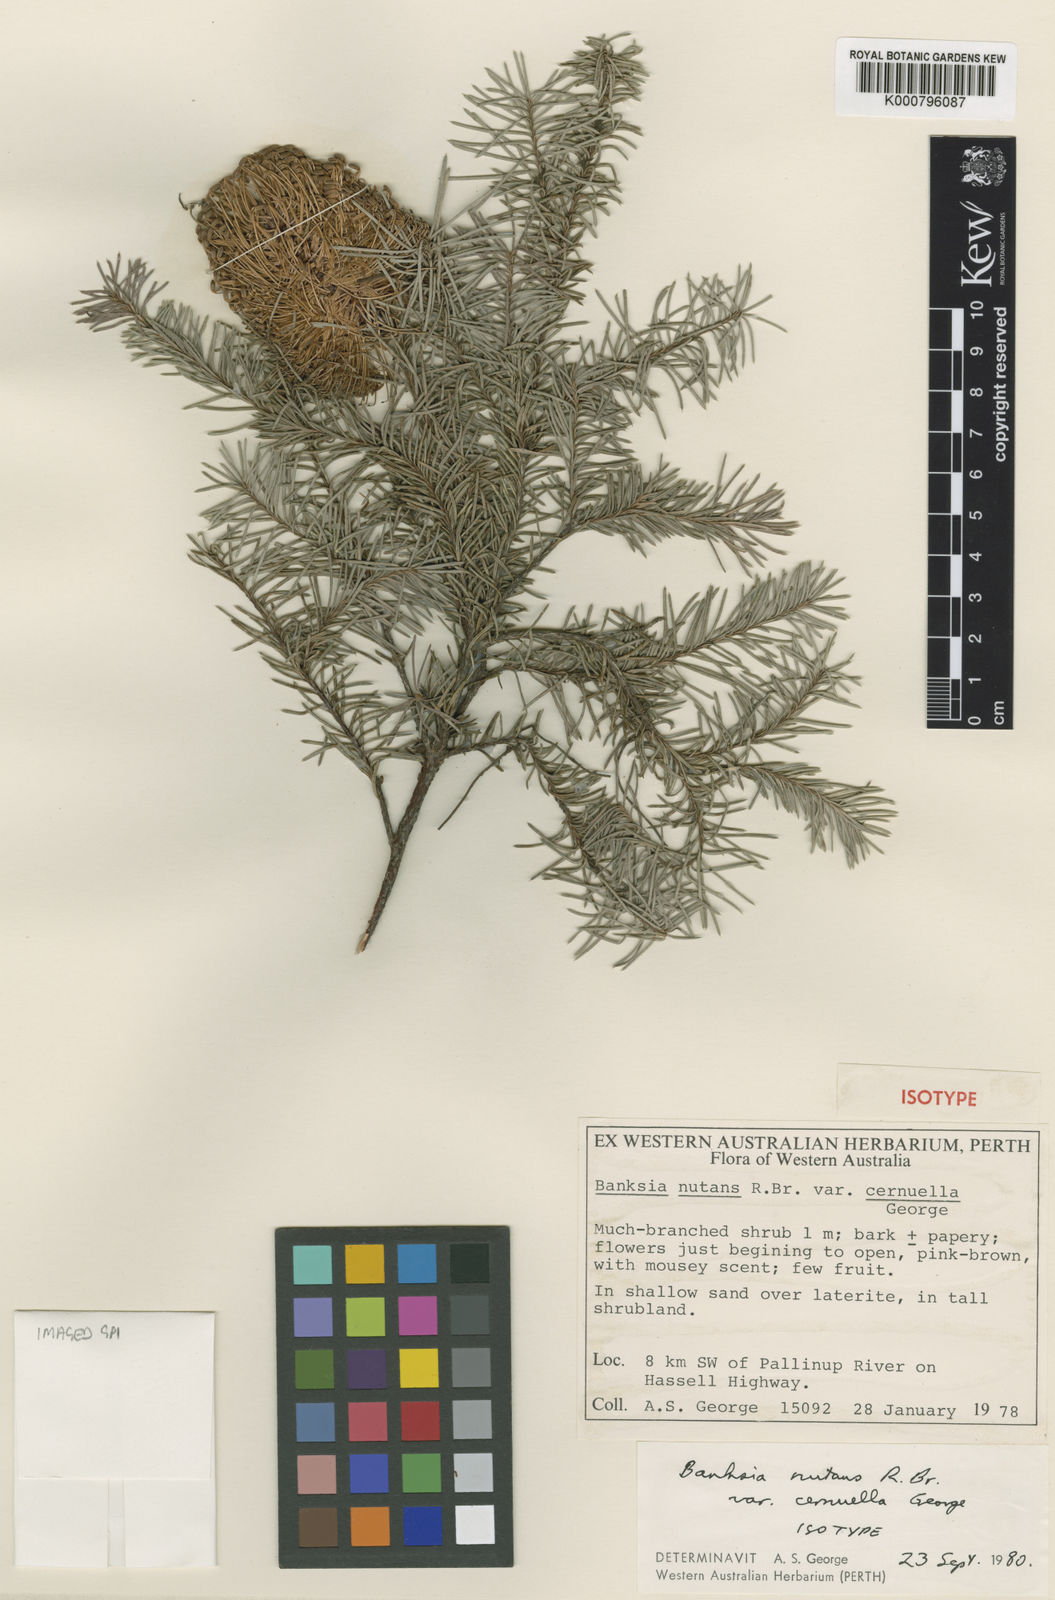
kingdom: Plantae
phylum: Tracheophyta
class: Magnoliopsida
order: Proteales
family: Proteaceae
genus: Banksia
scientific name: Banksia nutans
